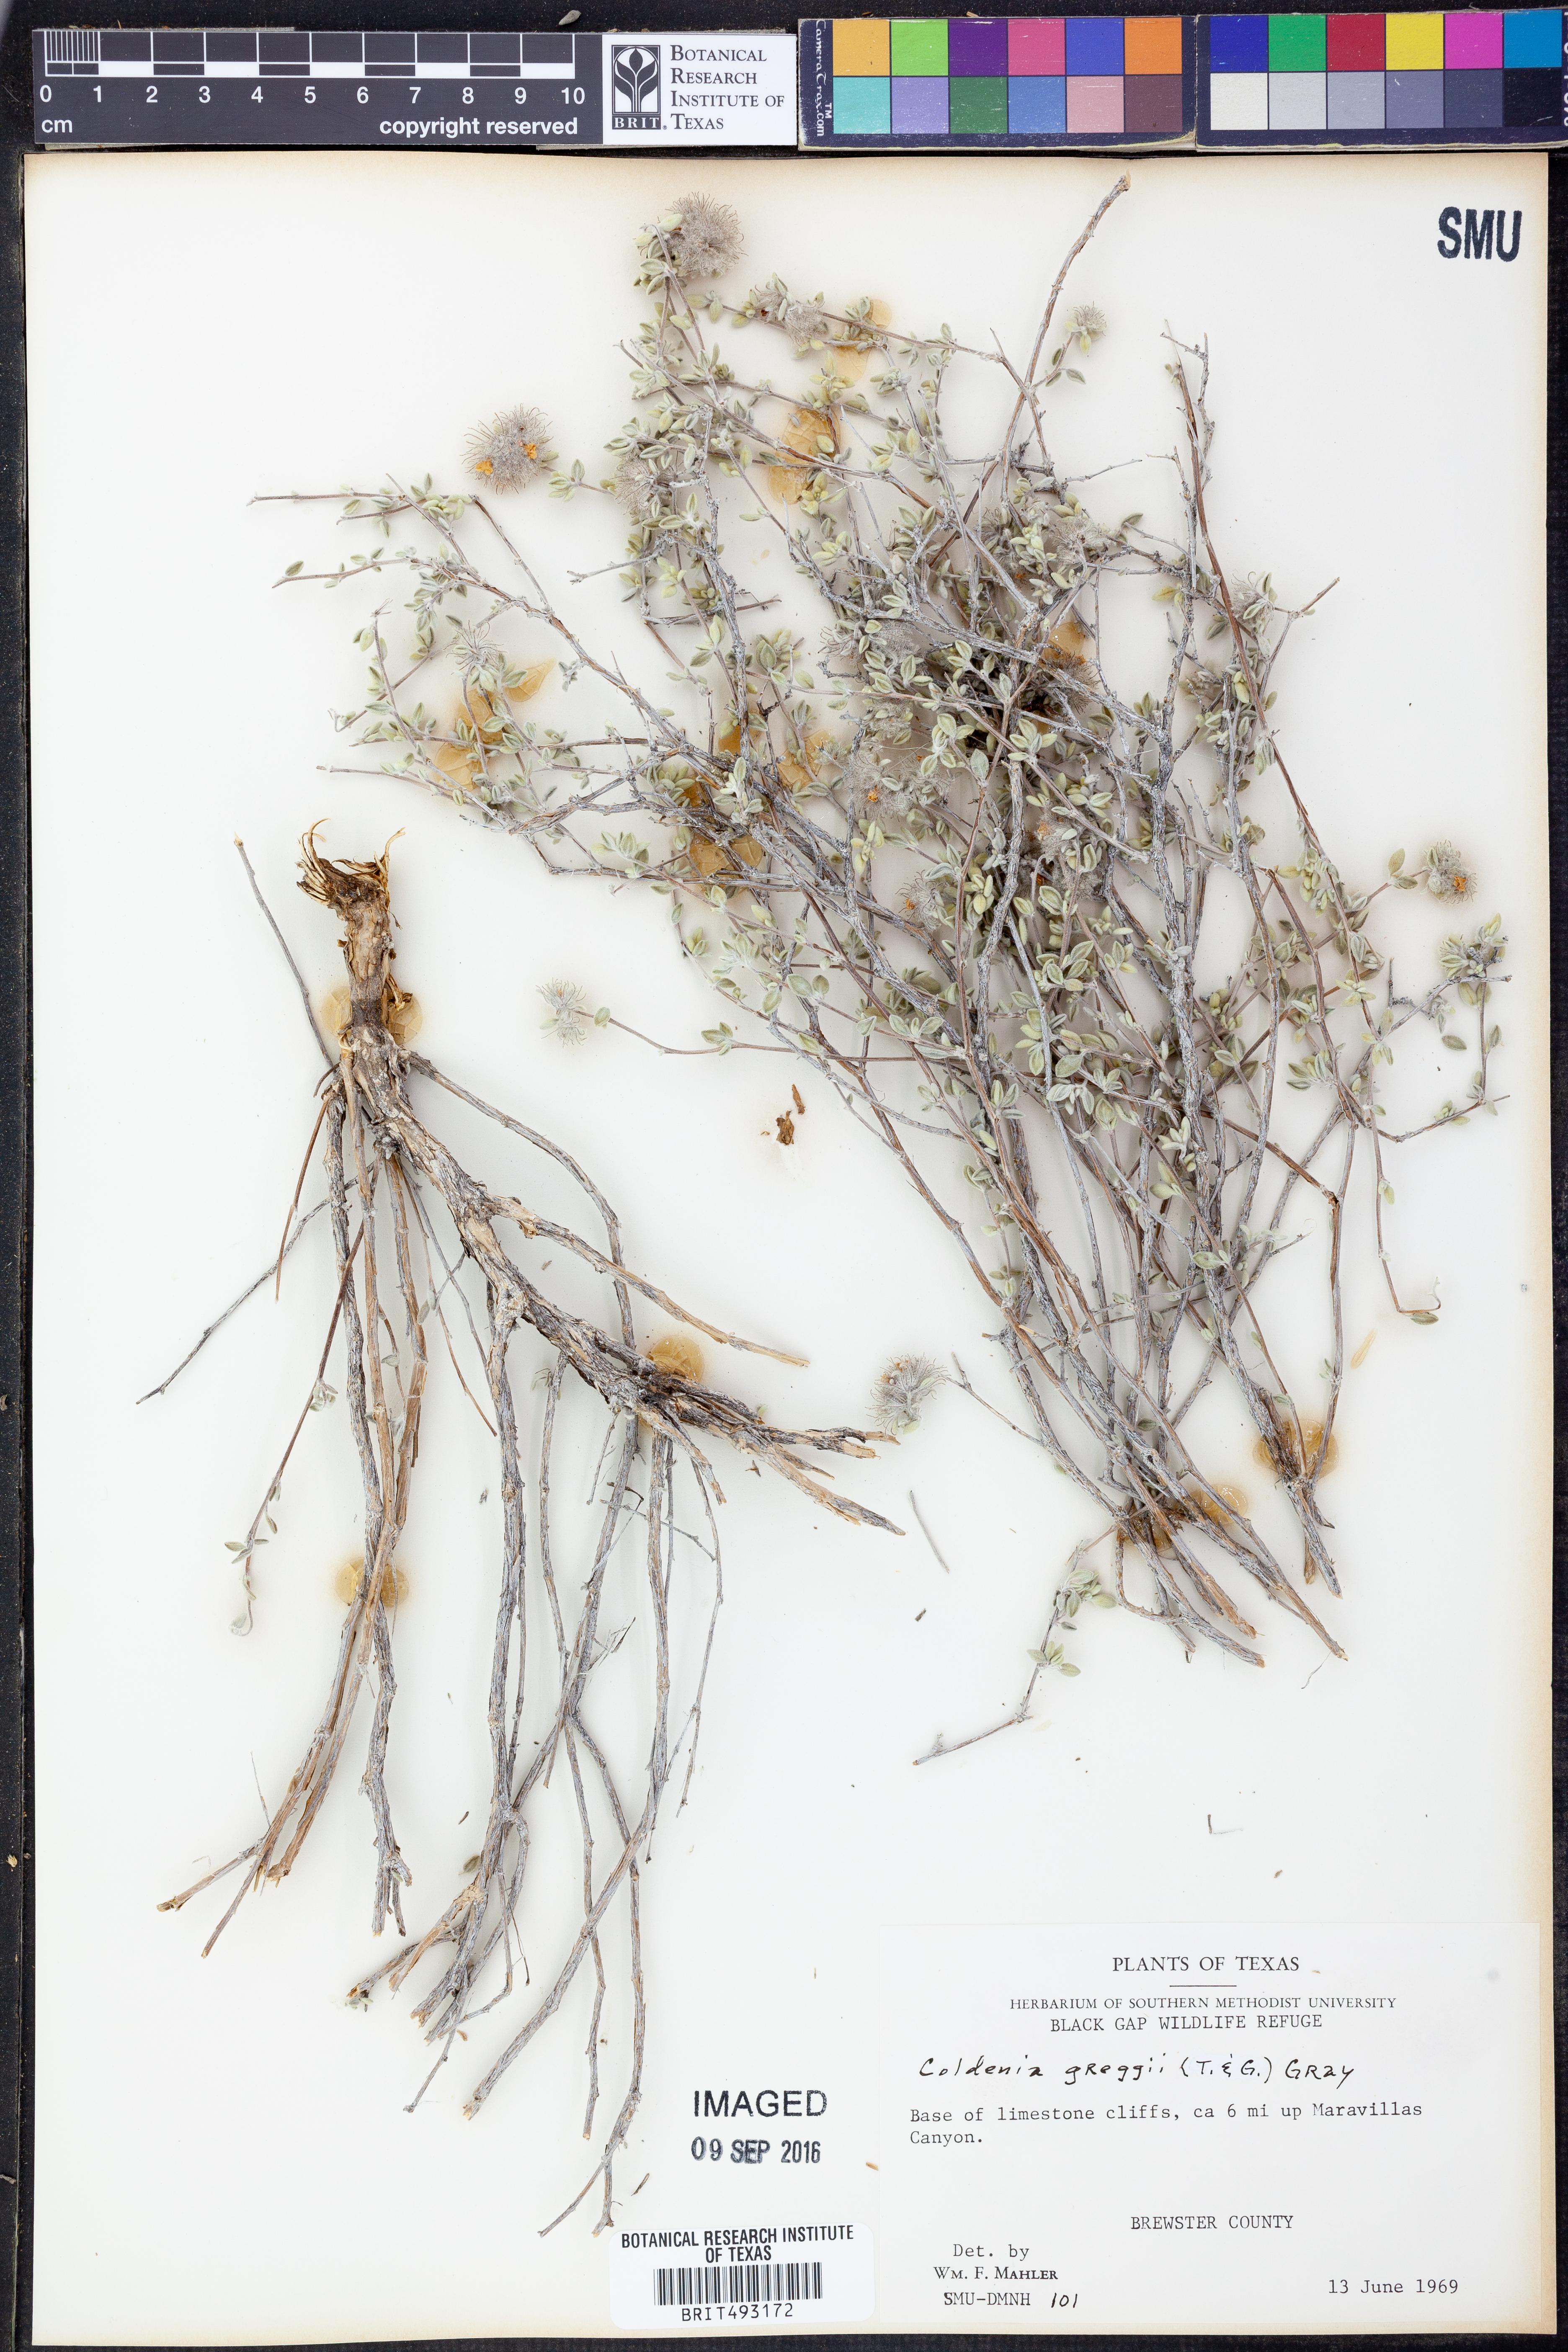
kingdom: Plantae
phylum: Tracheophyta
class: Magnoliopsida
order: Boraginales
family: Ehretiaceae
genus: Tiquilia
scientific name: Tiquilia greggii
